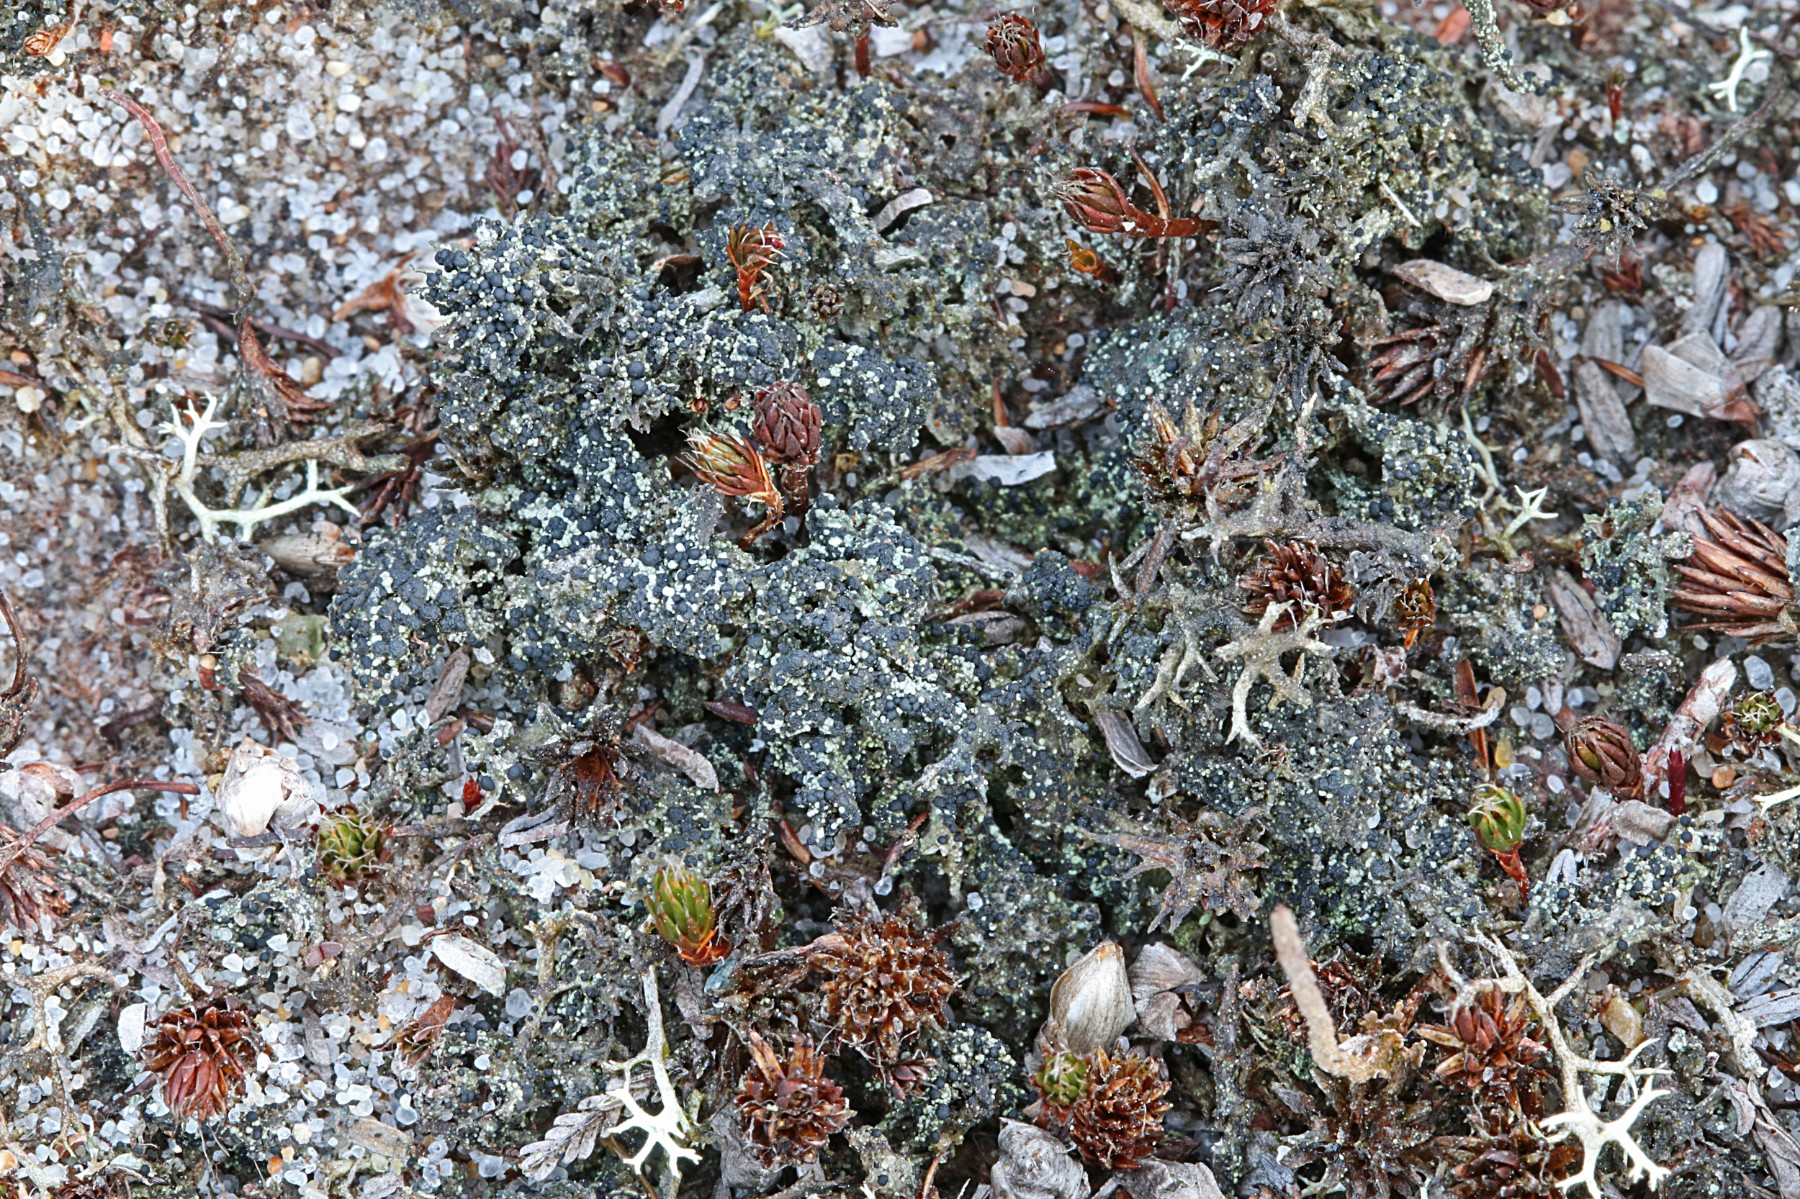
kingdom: Fungi
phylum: Ascomycota
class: Lecanoromycetes
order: Lecanorales
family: Byssolomataceae
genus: Micarea
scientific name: Micarea lignaria
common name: tørve-knaplav
